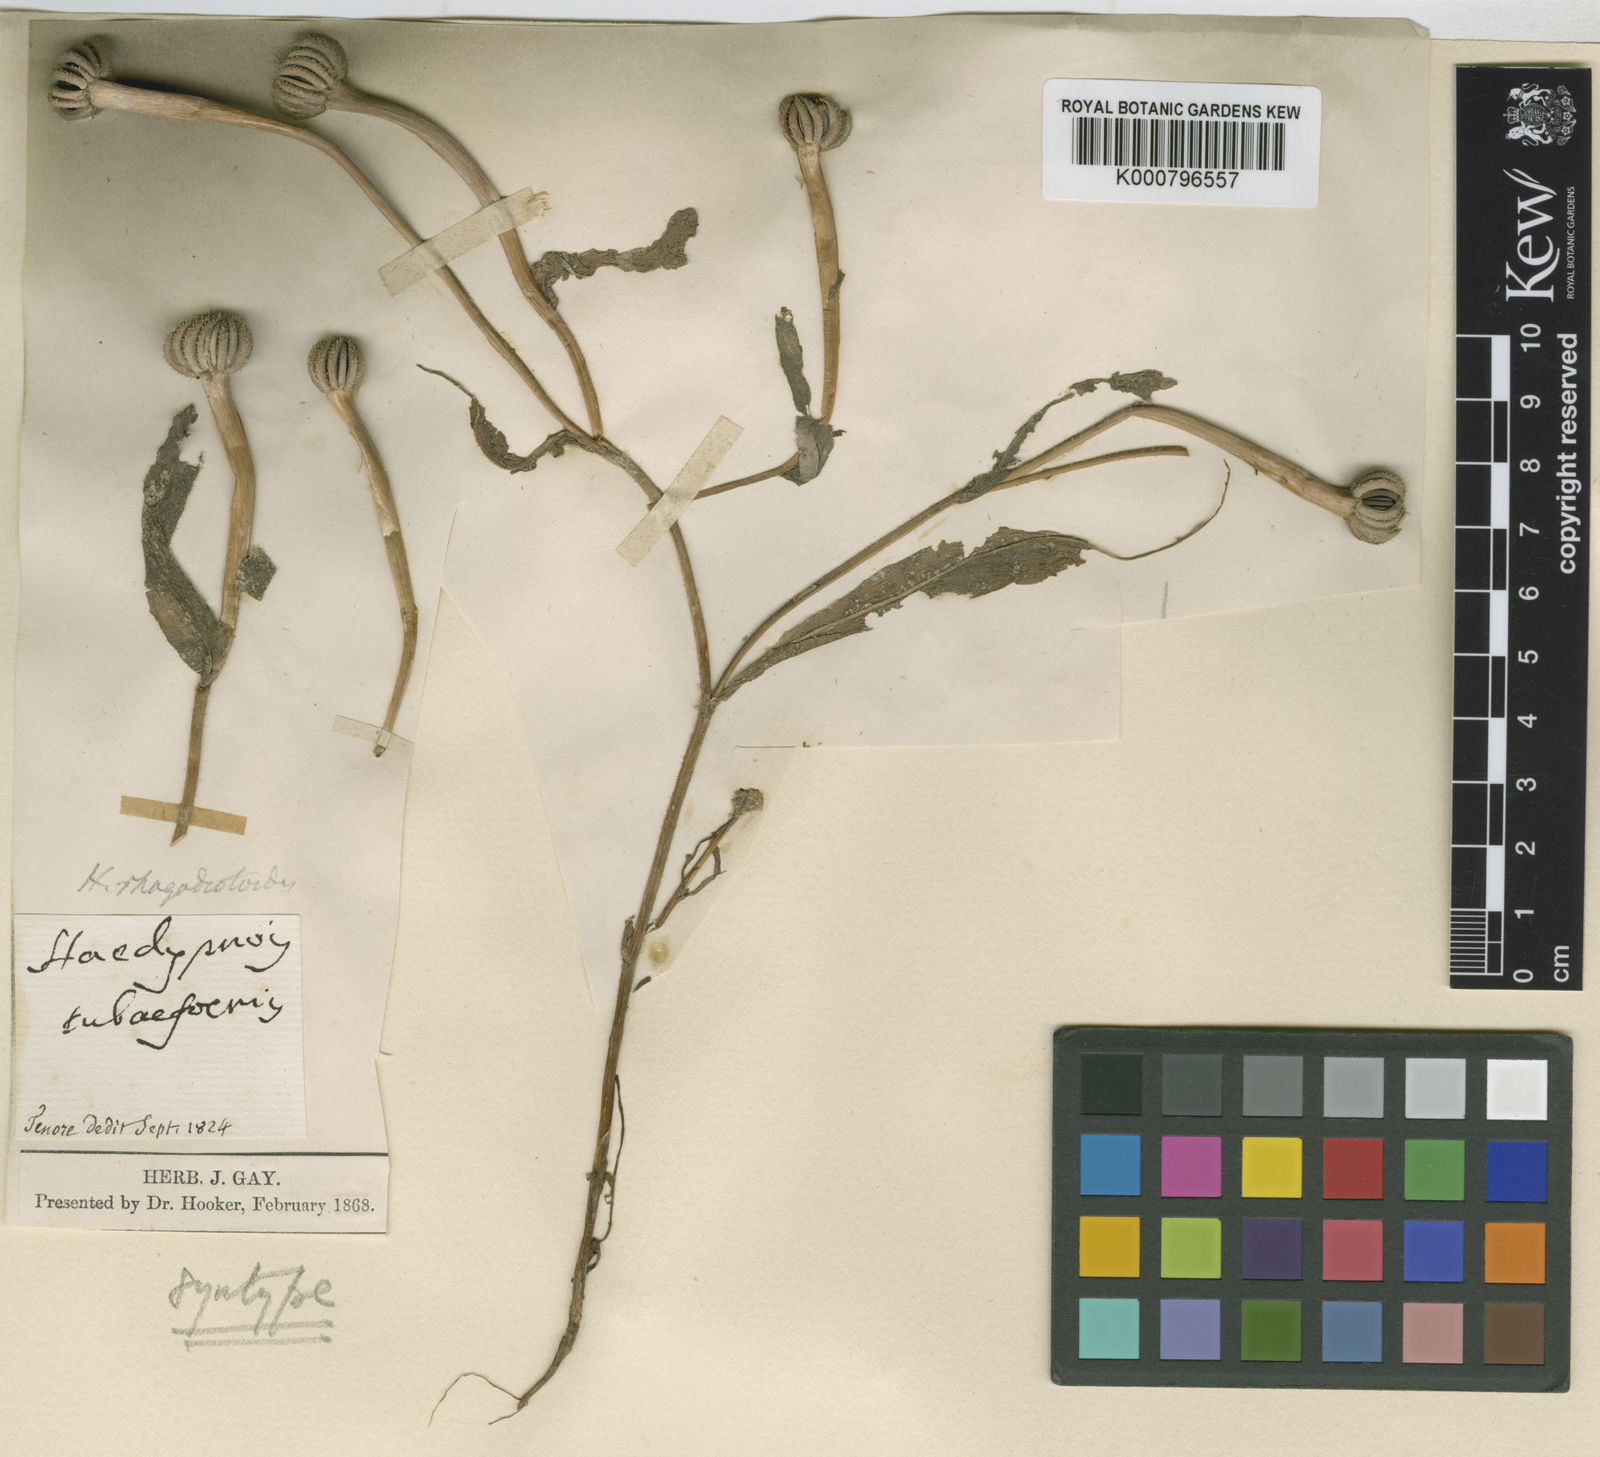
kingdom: Plantae
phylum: Tracheophyta
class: Magnoliopsida
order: Asterales
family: Asteraceae
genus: Hedypnois
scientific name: Hedypnois rhagadioloides
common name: Cretan weed
